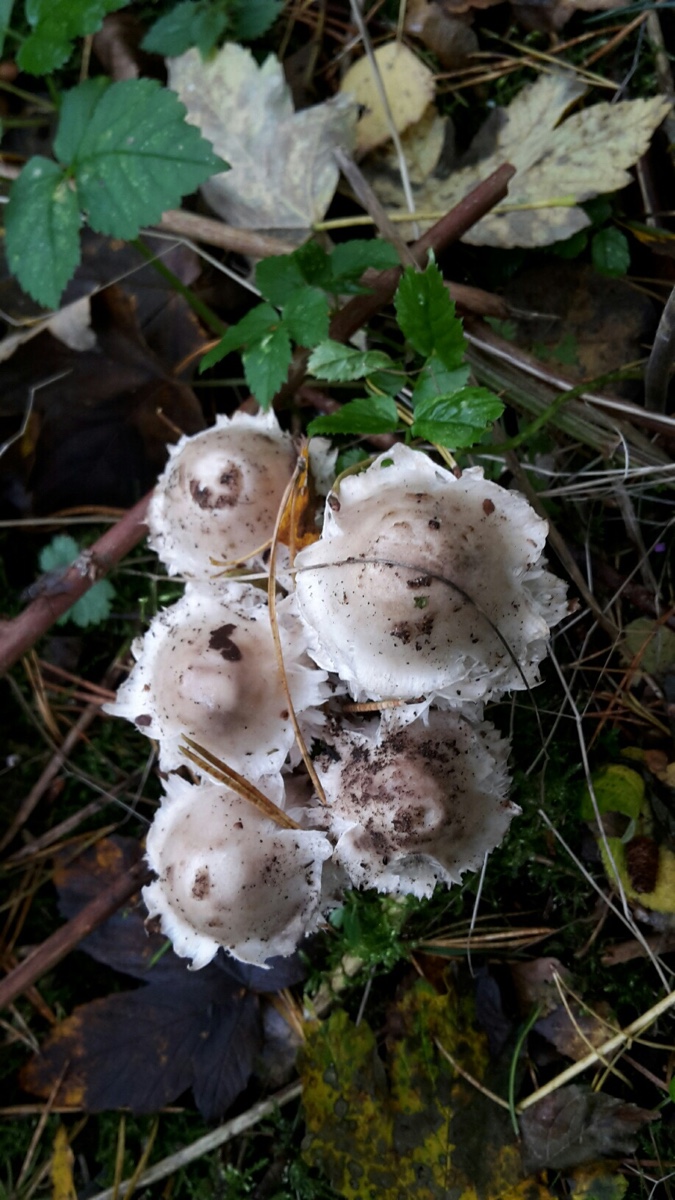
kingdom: Fungi
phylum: Basidiomycota
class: Agaricomycetes
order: Agaricales
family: Agaricaceae
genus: Coprinus
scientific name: Coprinus comatus
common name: stor parykhat
